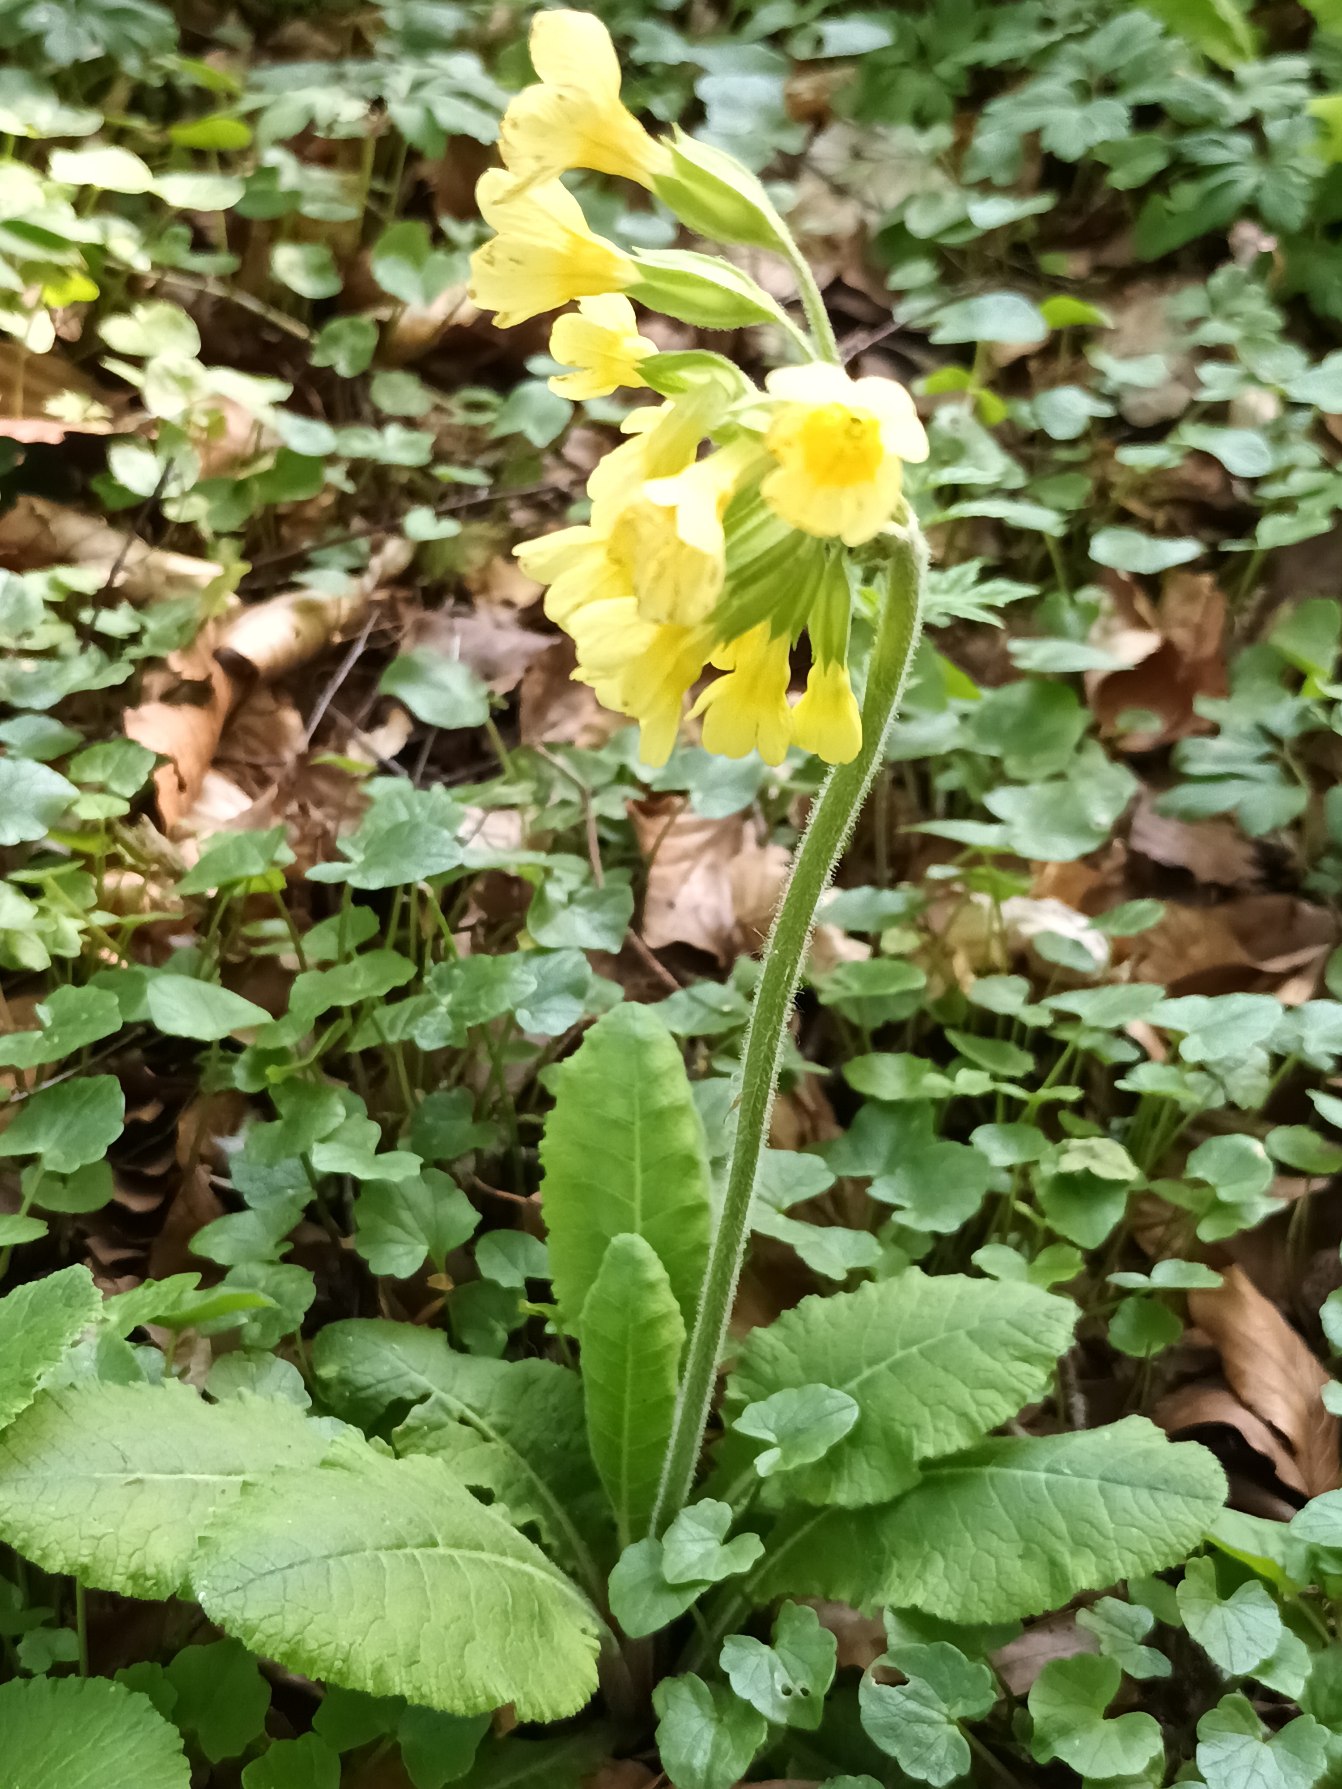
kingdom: Plantae
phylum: Tracheophyta
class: Magnoliopsida
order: Ericales
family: Primulaceae
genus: Primula
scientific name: Primula elatior
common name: Fladkravet kodriver
